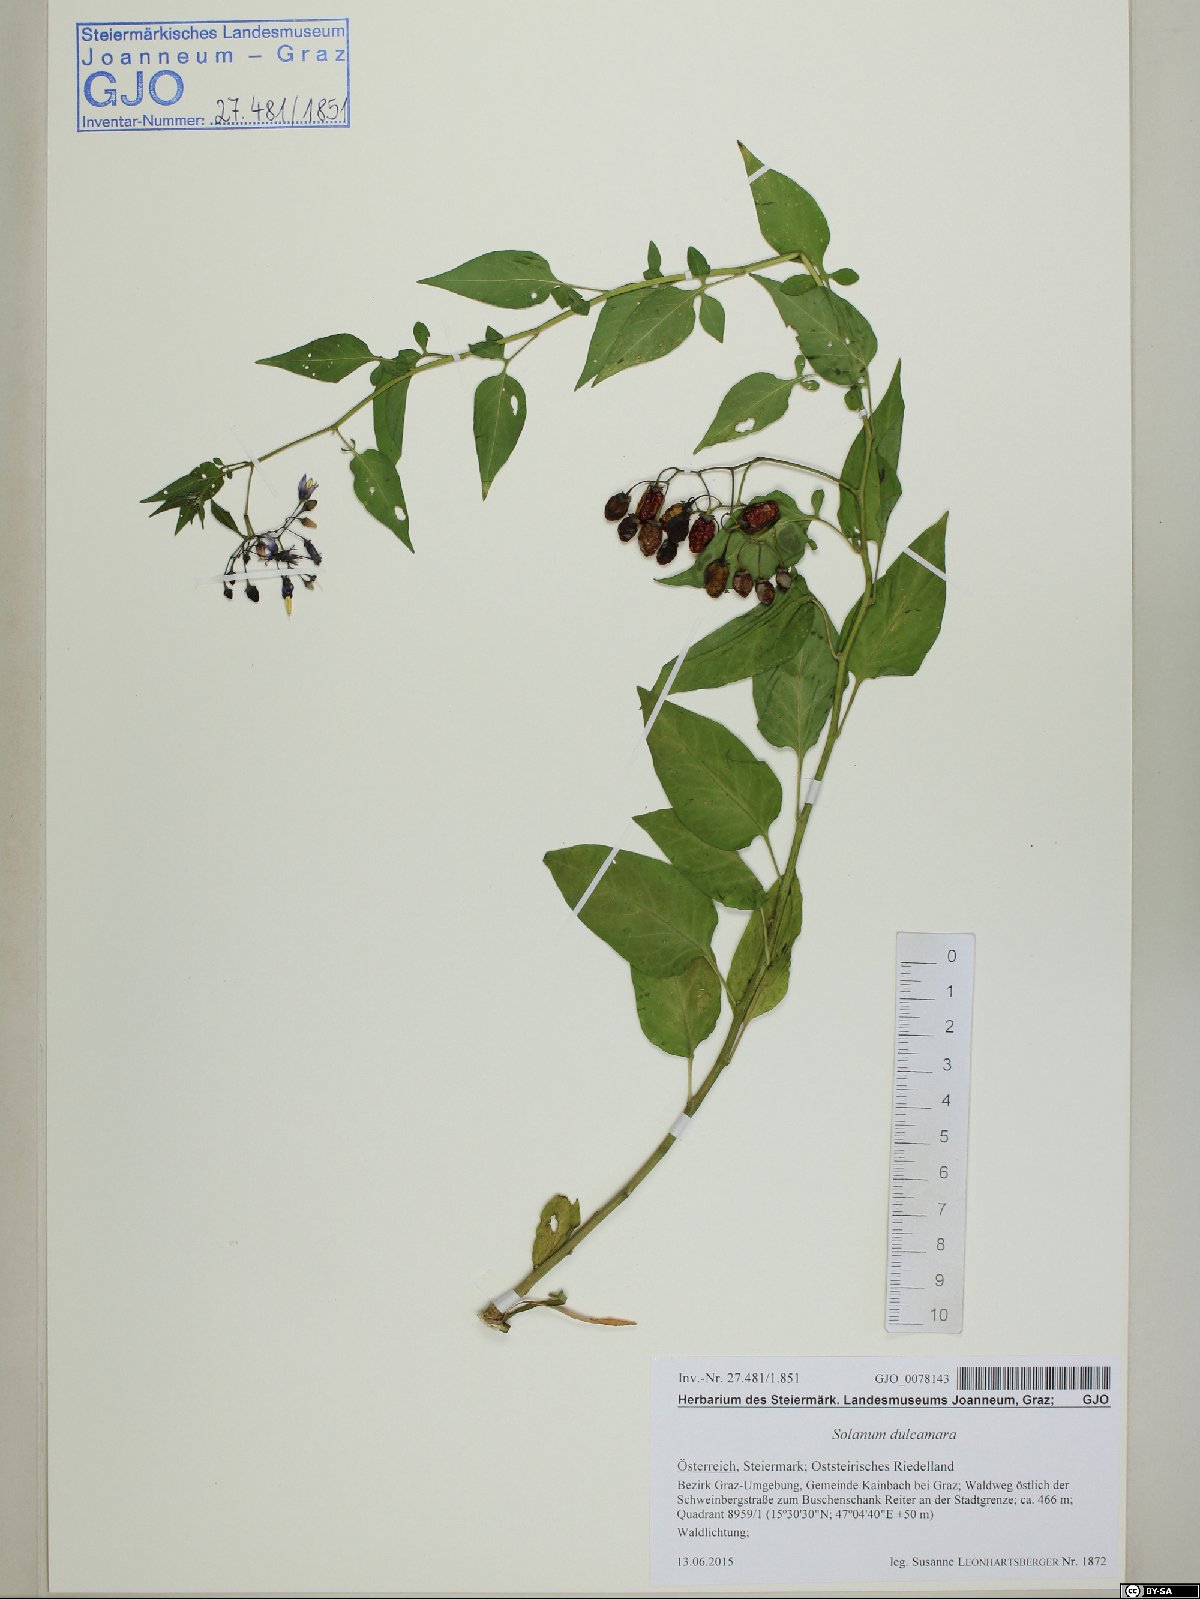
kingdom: Plantae
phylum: Tracheophyta
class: Magnoliopsida
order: Solanales
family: Solanaceae
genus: Solanum
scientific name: Solanum dulcamara
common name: Climbing nightshade
